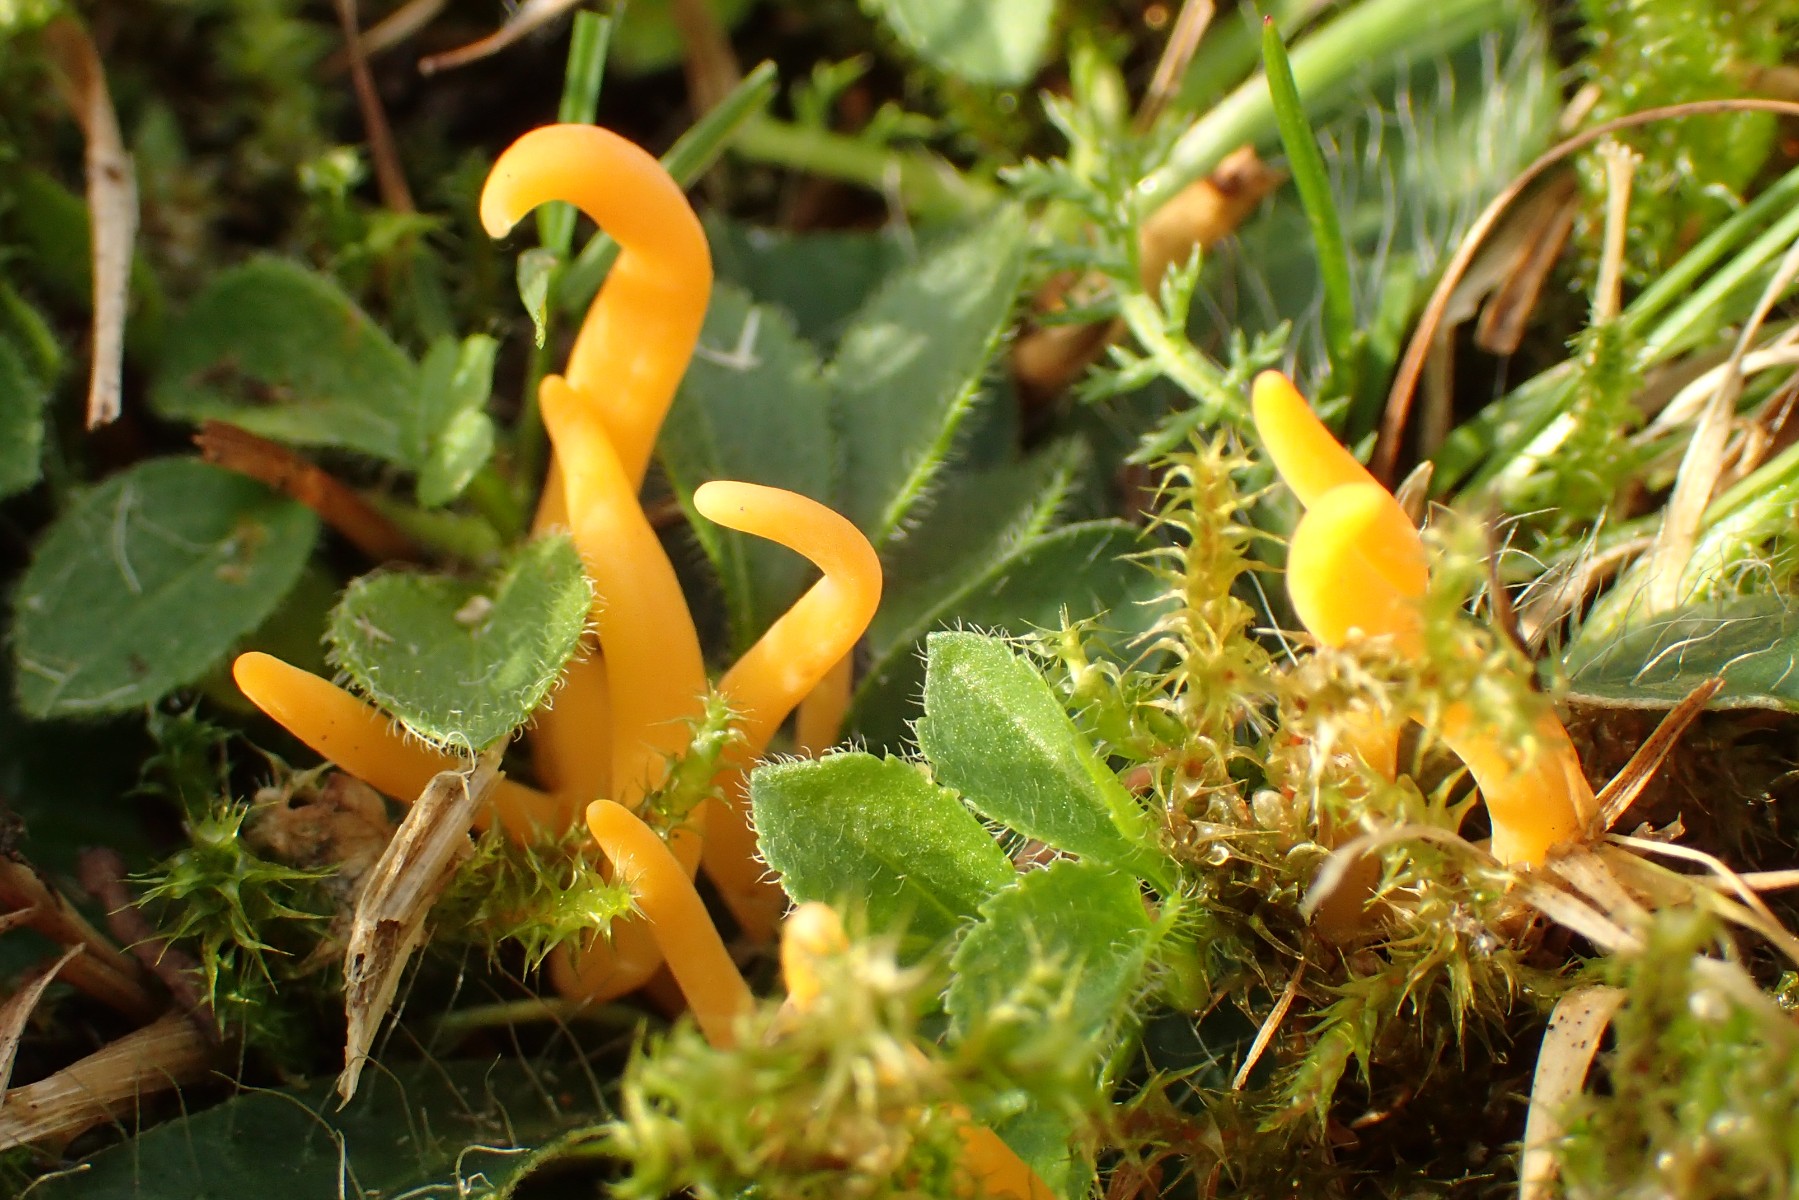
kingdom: Fungi
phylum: Basidiomycota
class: Agaricomycetes
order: Agaricales
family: Clavariaceae
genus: Clavulinopsis
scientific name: Clavulinopsis luteoalba
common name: abrikos-køllesvamp
